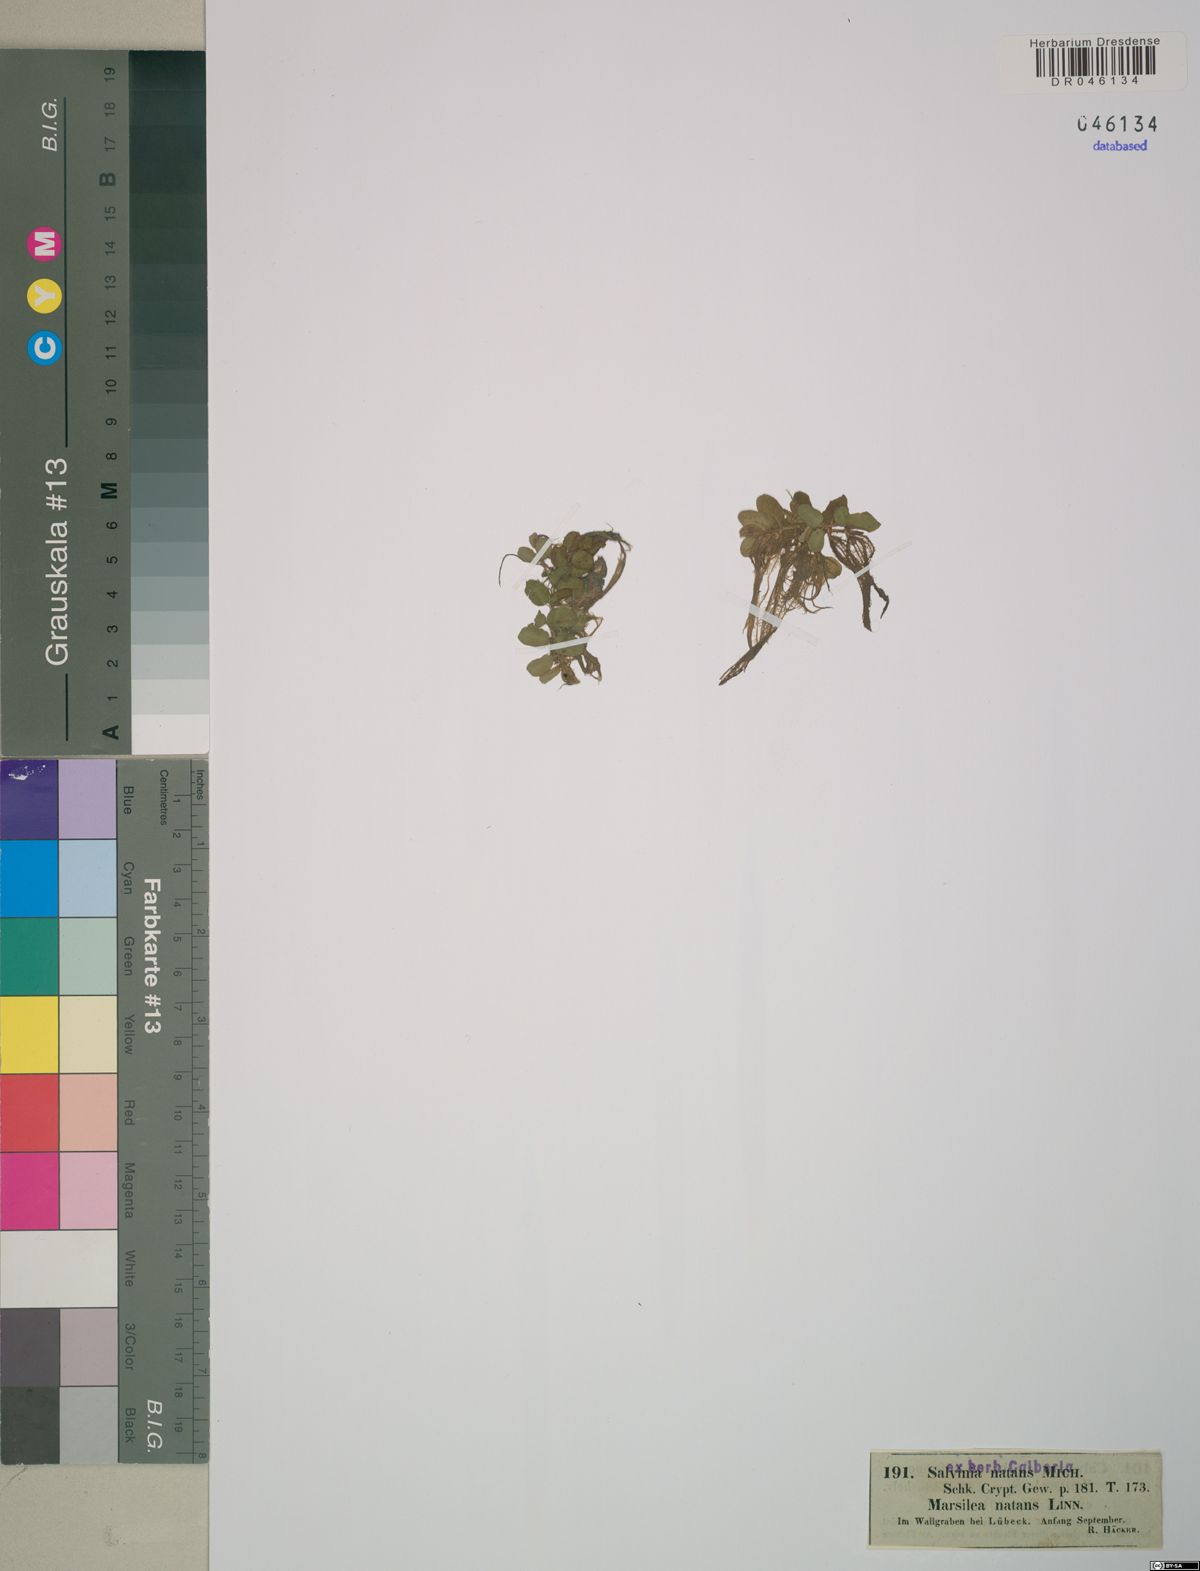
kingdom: Plantae
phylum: Tracheophyta
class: Polypodiopsida
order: Salviniales
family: Salviniaceae
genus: Salvinia
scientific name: Salvinia natans
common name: Floating fern
